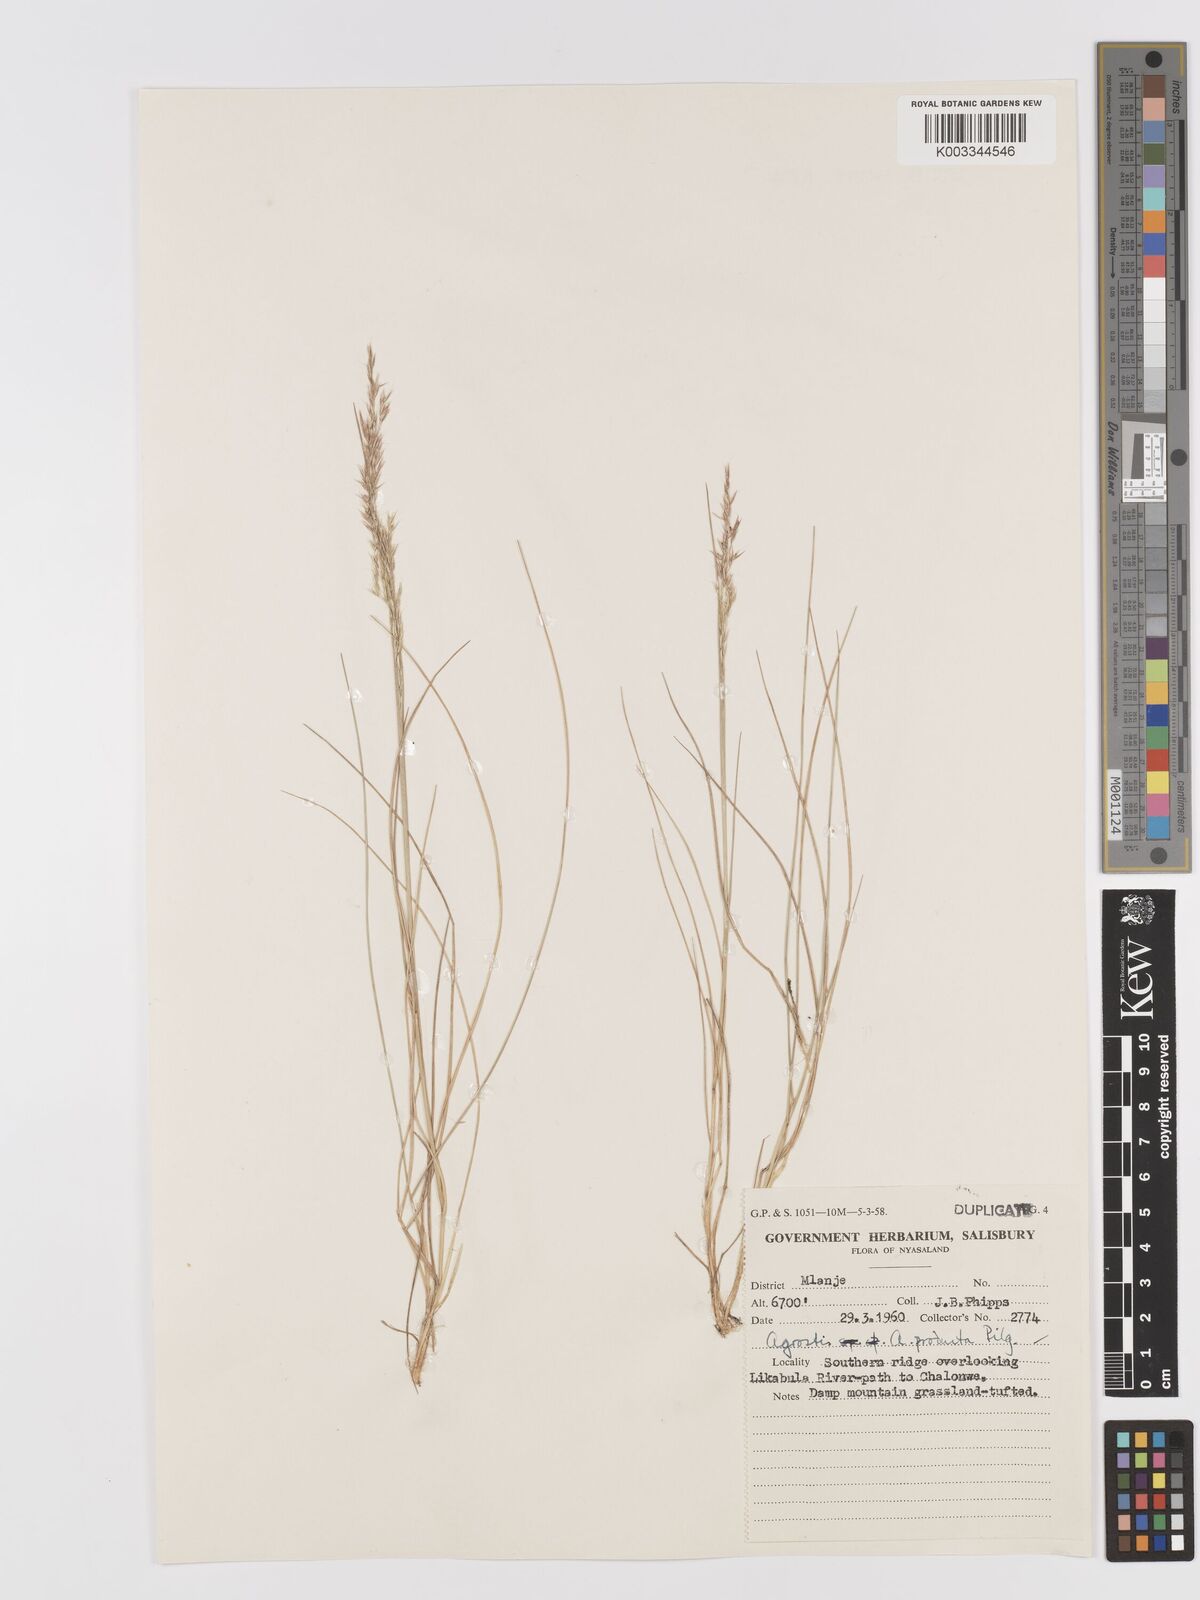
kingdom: Plantae
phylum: Tracheophyta
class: Liliopsida
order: Poales
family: Poaceae
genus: Agrostis
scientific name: Agrostis producta
